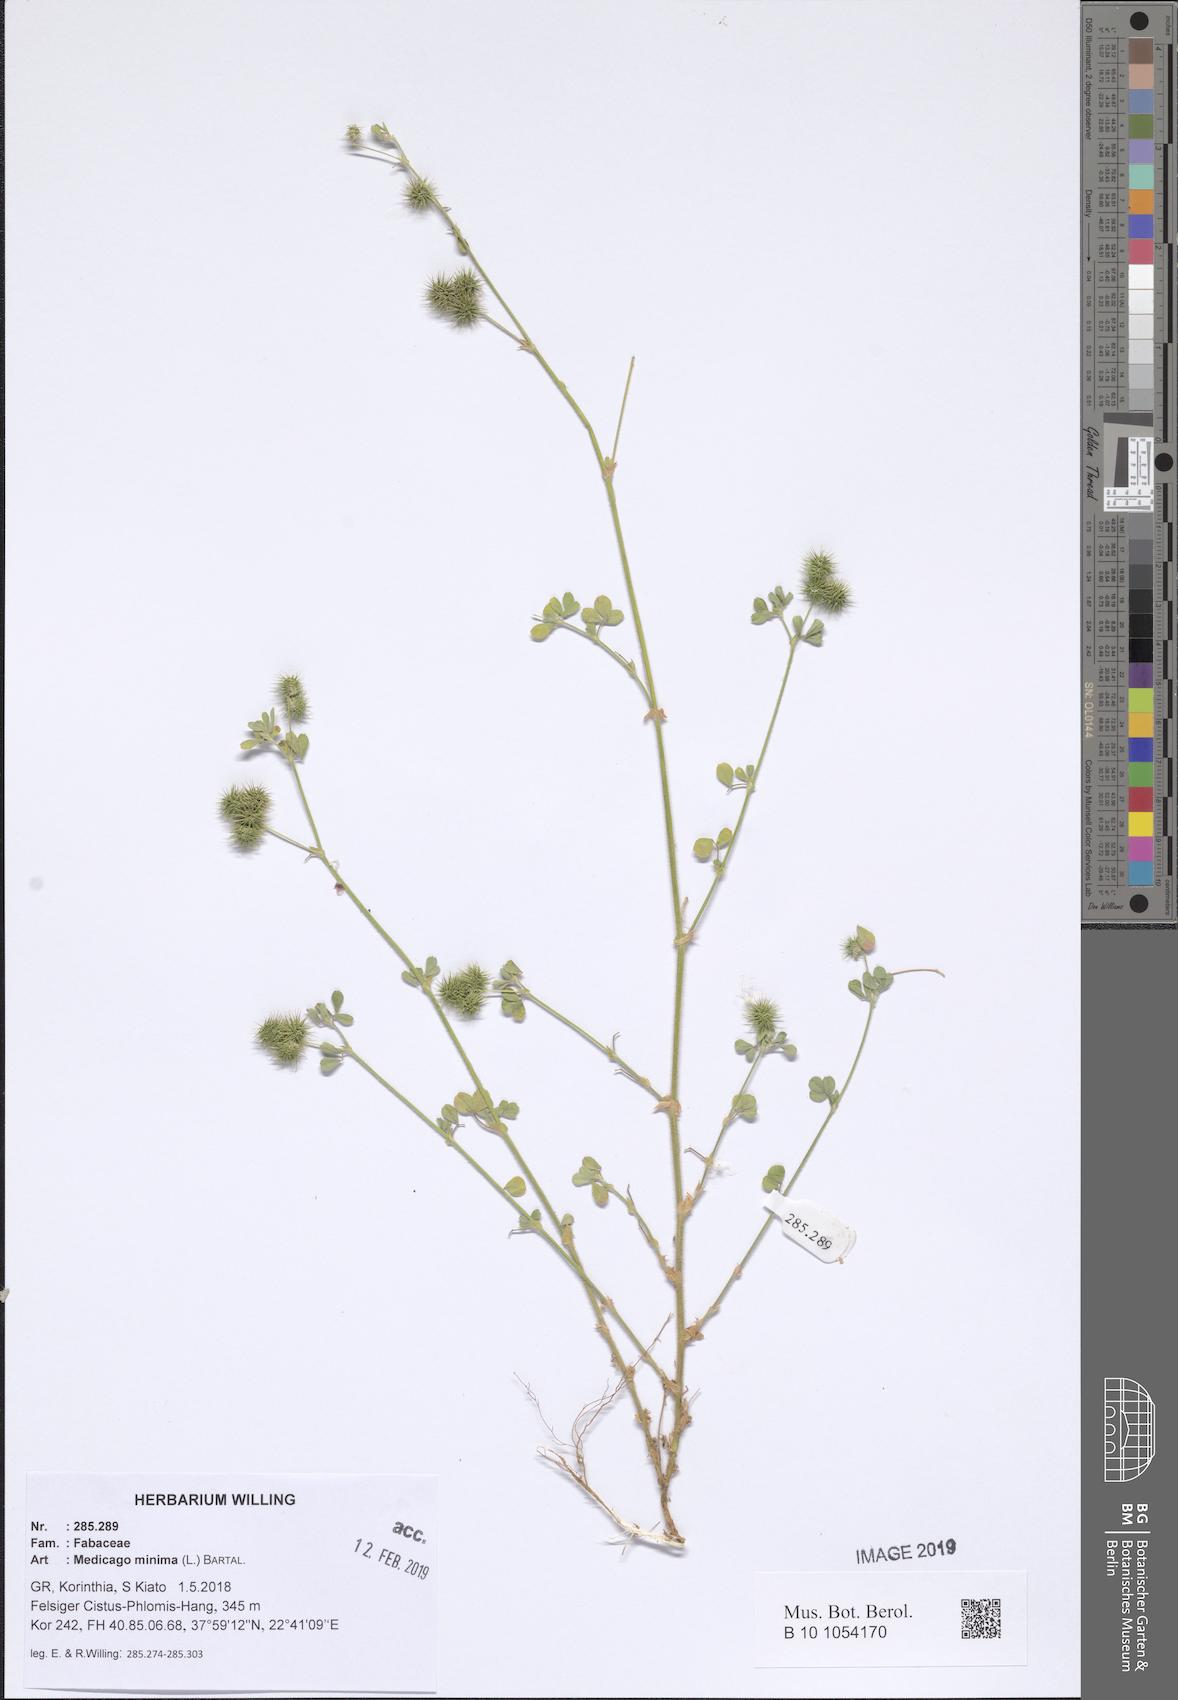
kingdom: Plantae
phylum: Tracheophyta
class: Magnoliopsida
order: Fabales
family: Fabaceae
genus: Medicago
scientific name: Medicago minima
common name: Little bur-clover
